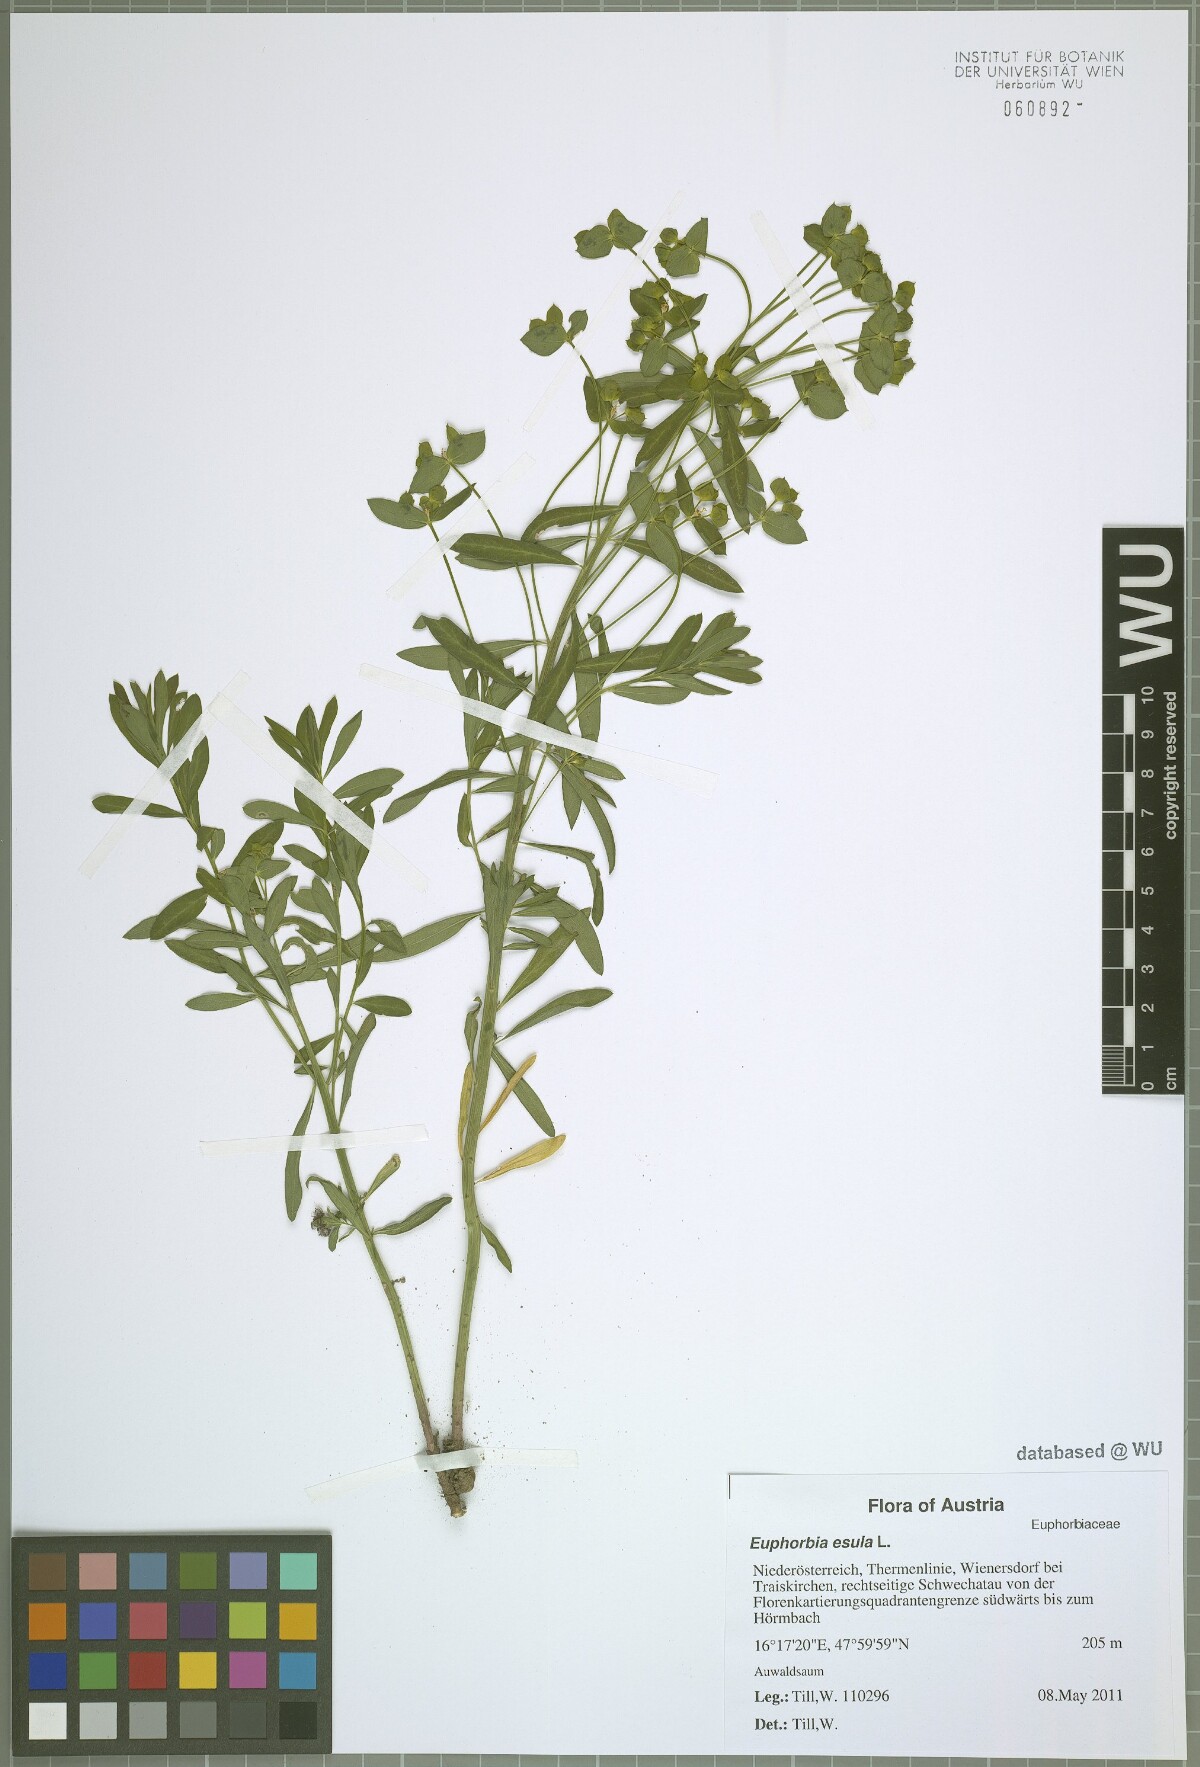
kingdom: Plantae
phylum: Tracheophyta
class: Magnoliopsida
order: Malpighiales
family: Euphorbiaceae
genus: Euphorbia
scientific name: Euphorbia esula
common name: Leafy spurge
